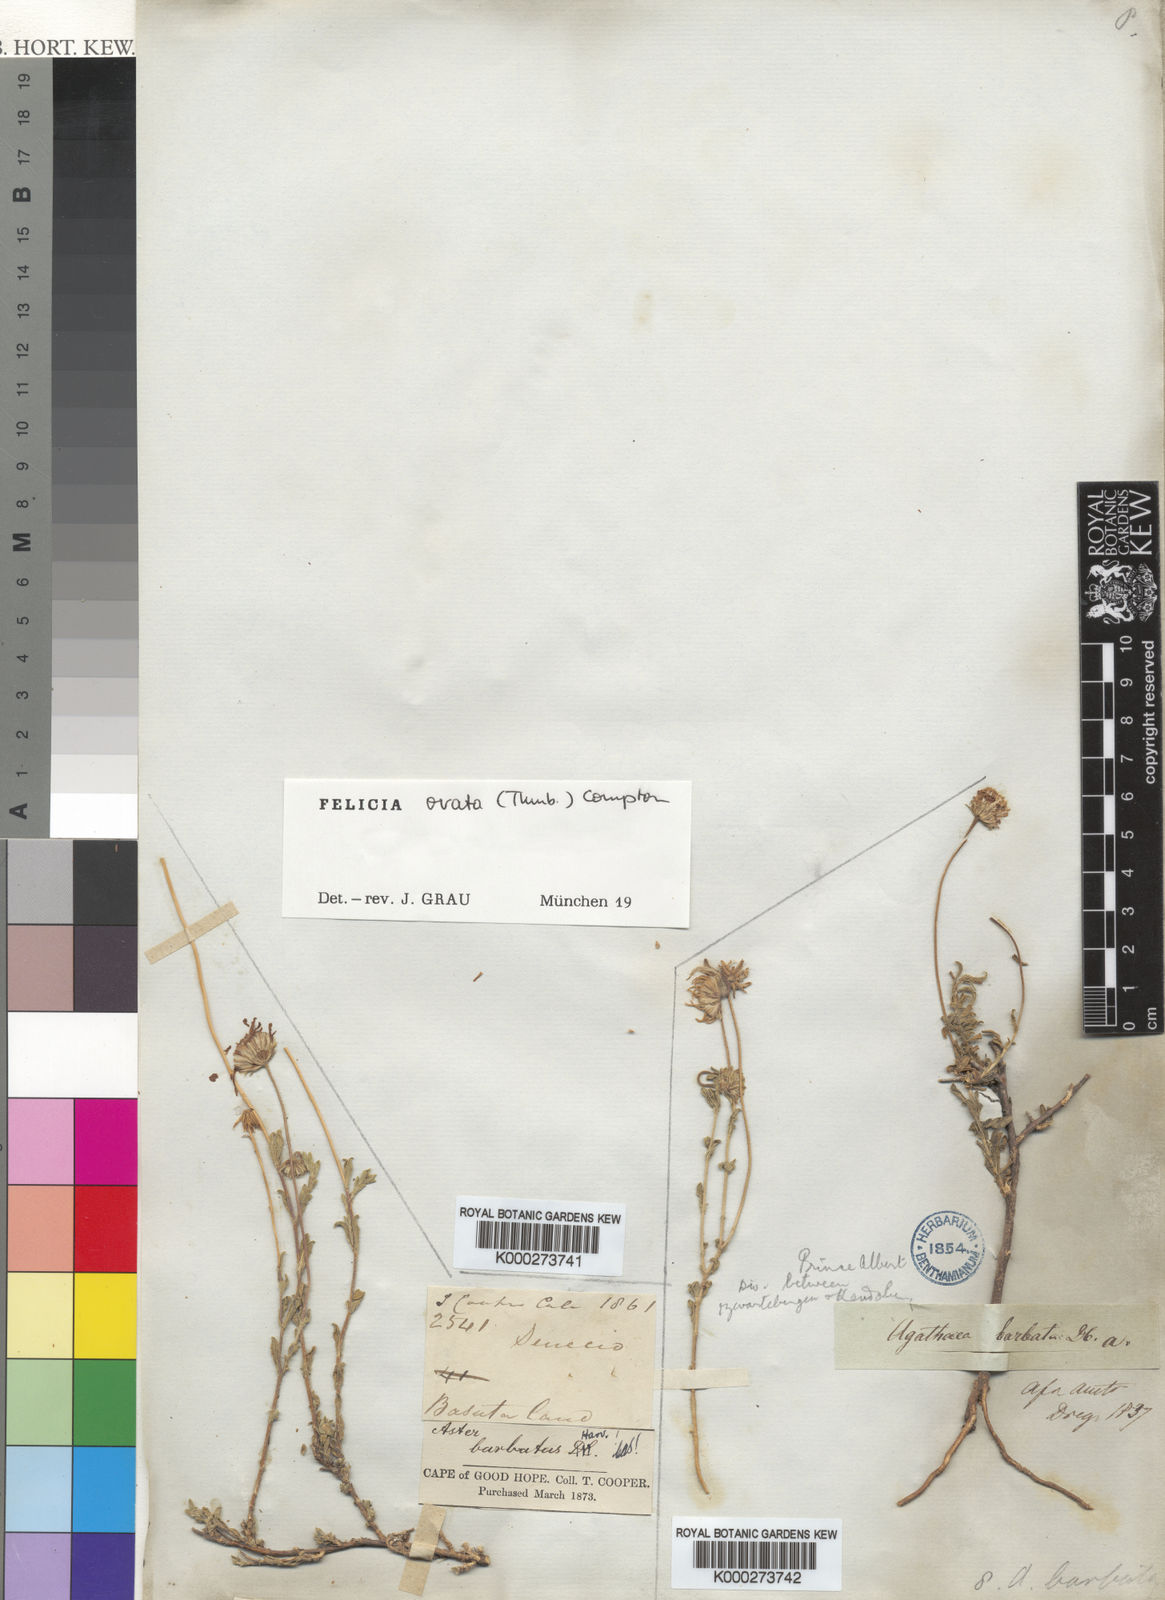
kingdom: Plantae
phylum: Tracheophyta
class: Magnoliopsida
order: Asterales
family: Asteraceae
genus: Felicia
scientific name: Felicia ovata
